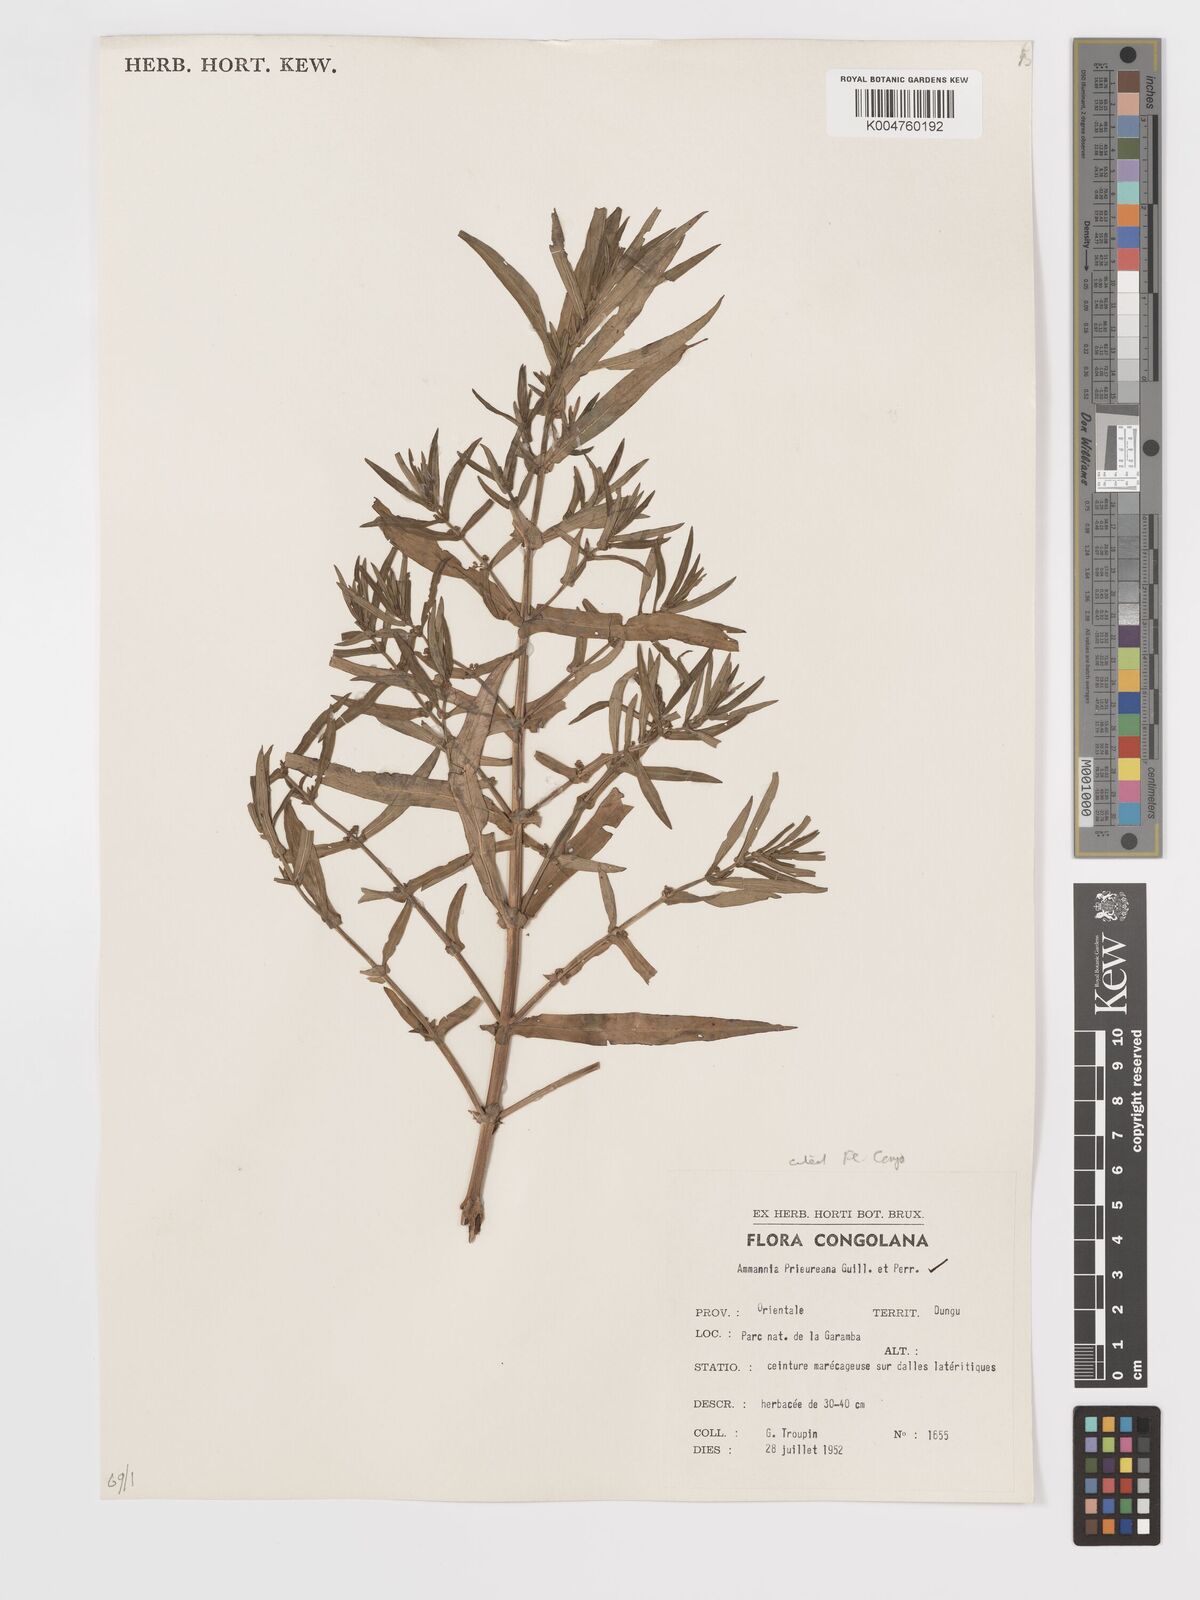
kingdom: Plantae
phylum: Tracheophyta
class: Magnoliopsida
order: Myrtales
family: Lythraceae
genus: Ammannia
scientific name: Ammannia prieuriana
